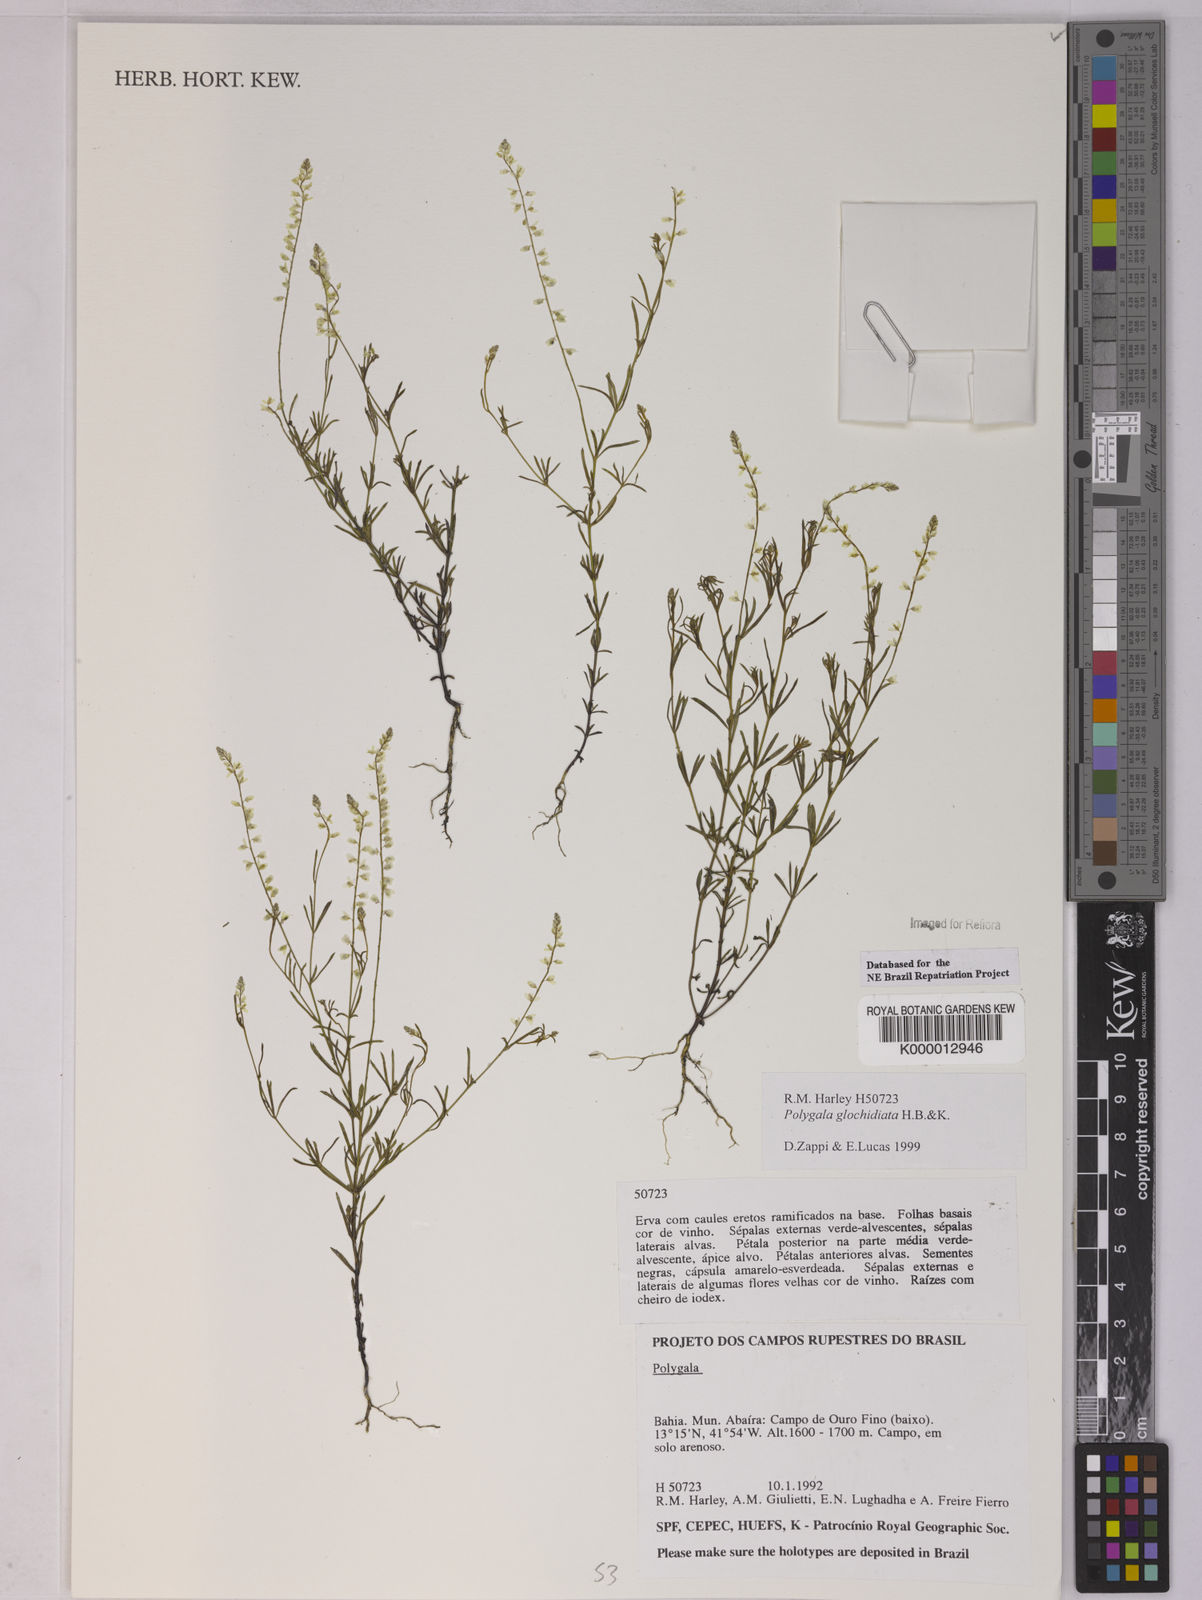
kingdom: Plantae
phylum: Tracheophyta
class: Magnoliopsida
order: Fabales
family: Polygalaceae
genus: Polygala
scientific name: Polygala glochidiata
